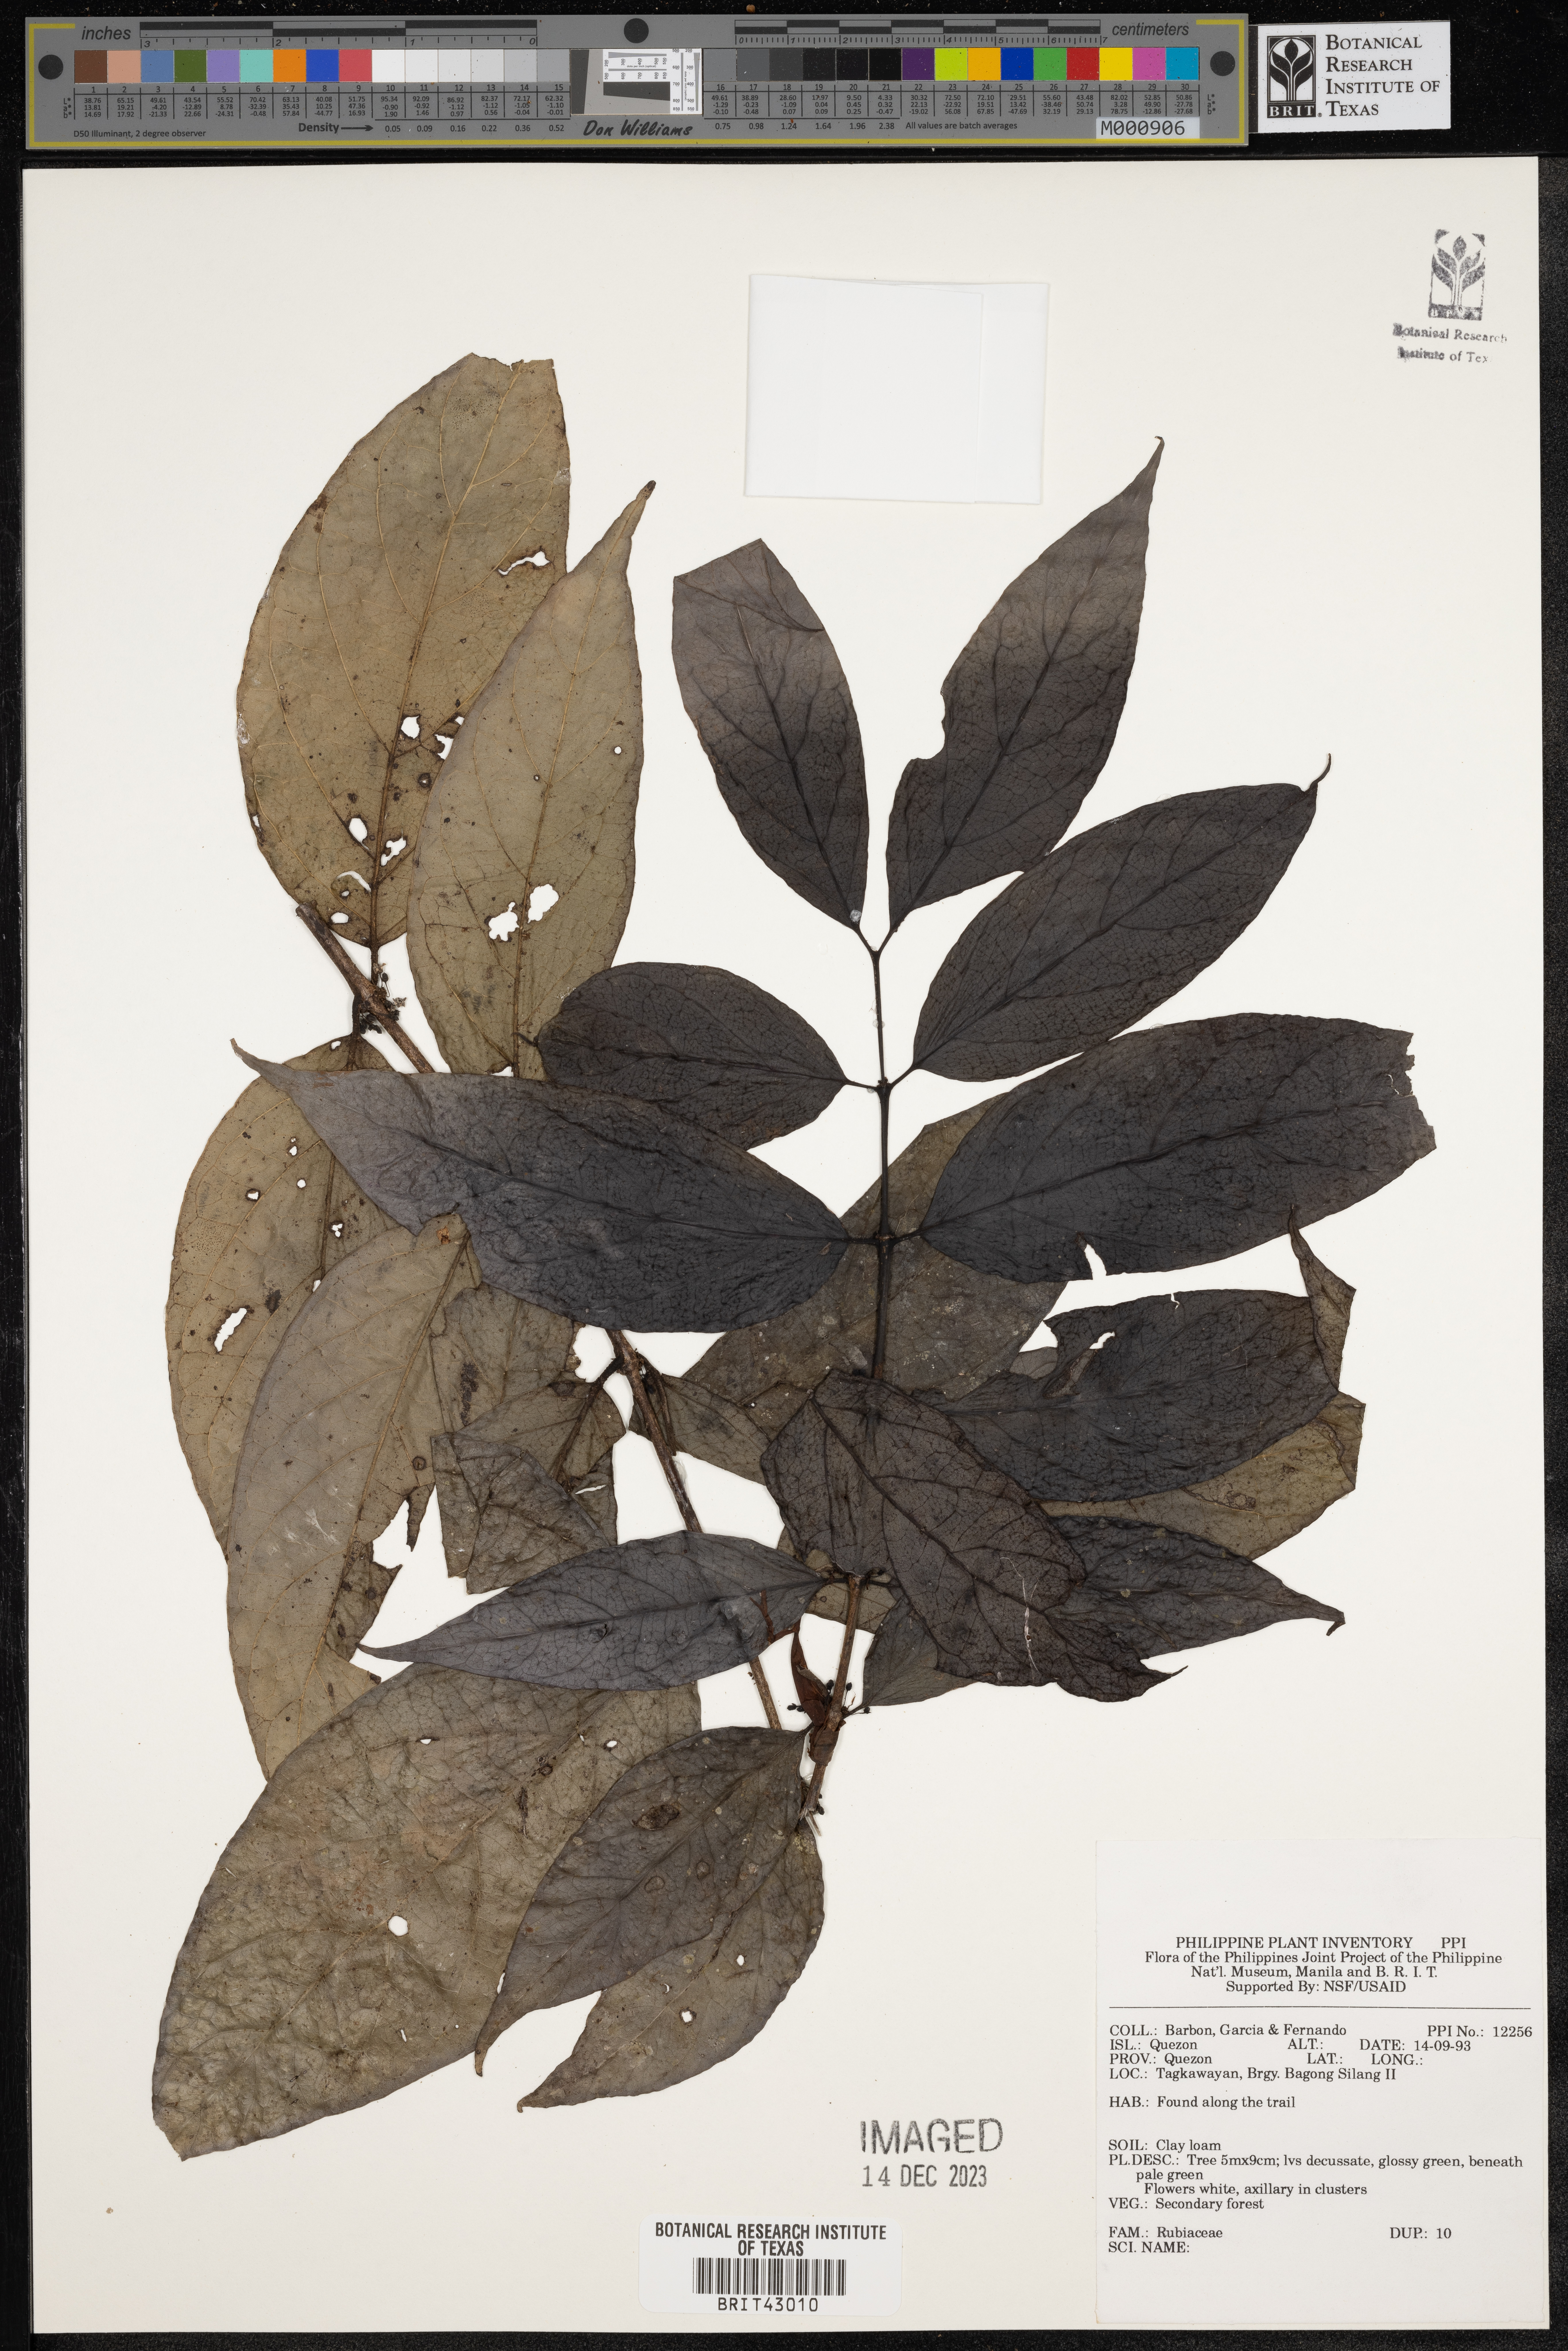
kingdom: Plantae
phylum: Tracheophyta
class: Magnoliopsida
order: Gentianales
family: Rubiaceae
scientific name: Rubiaceae
